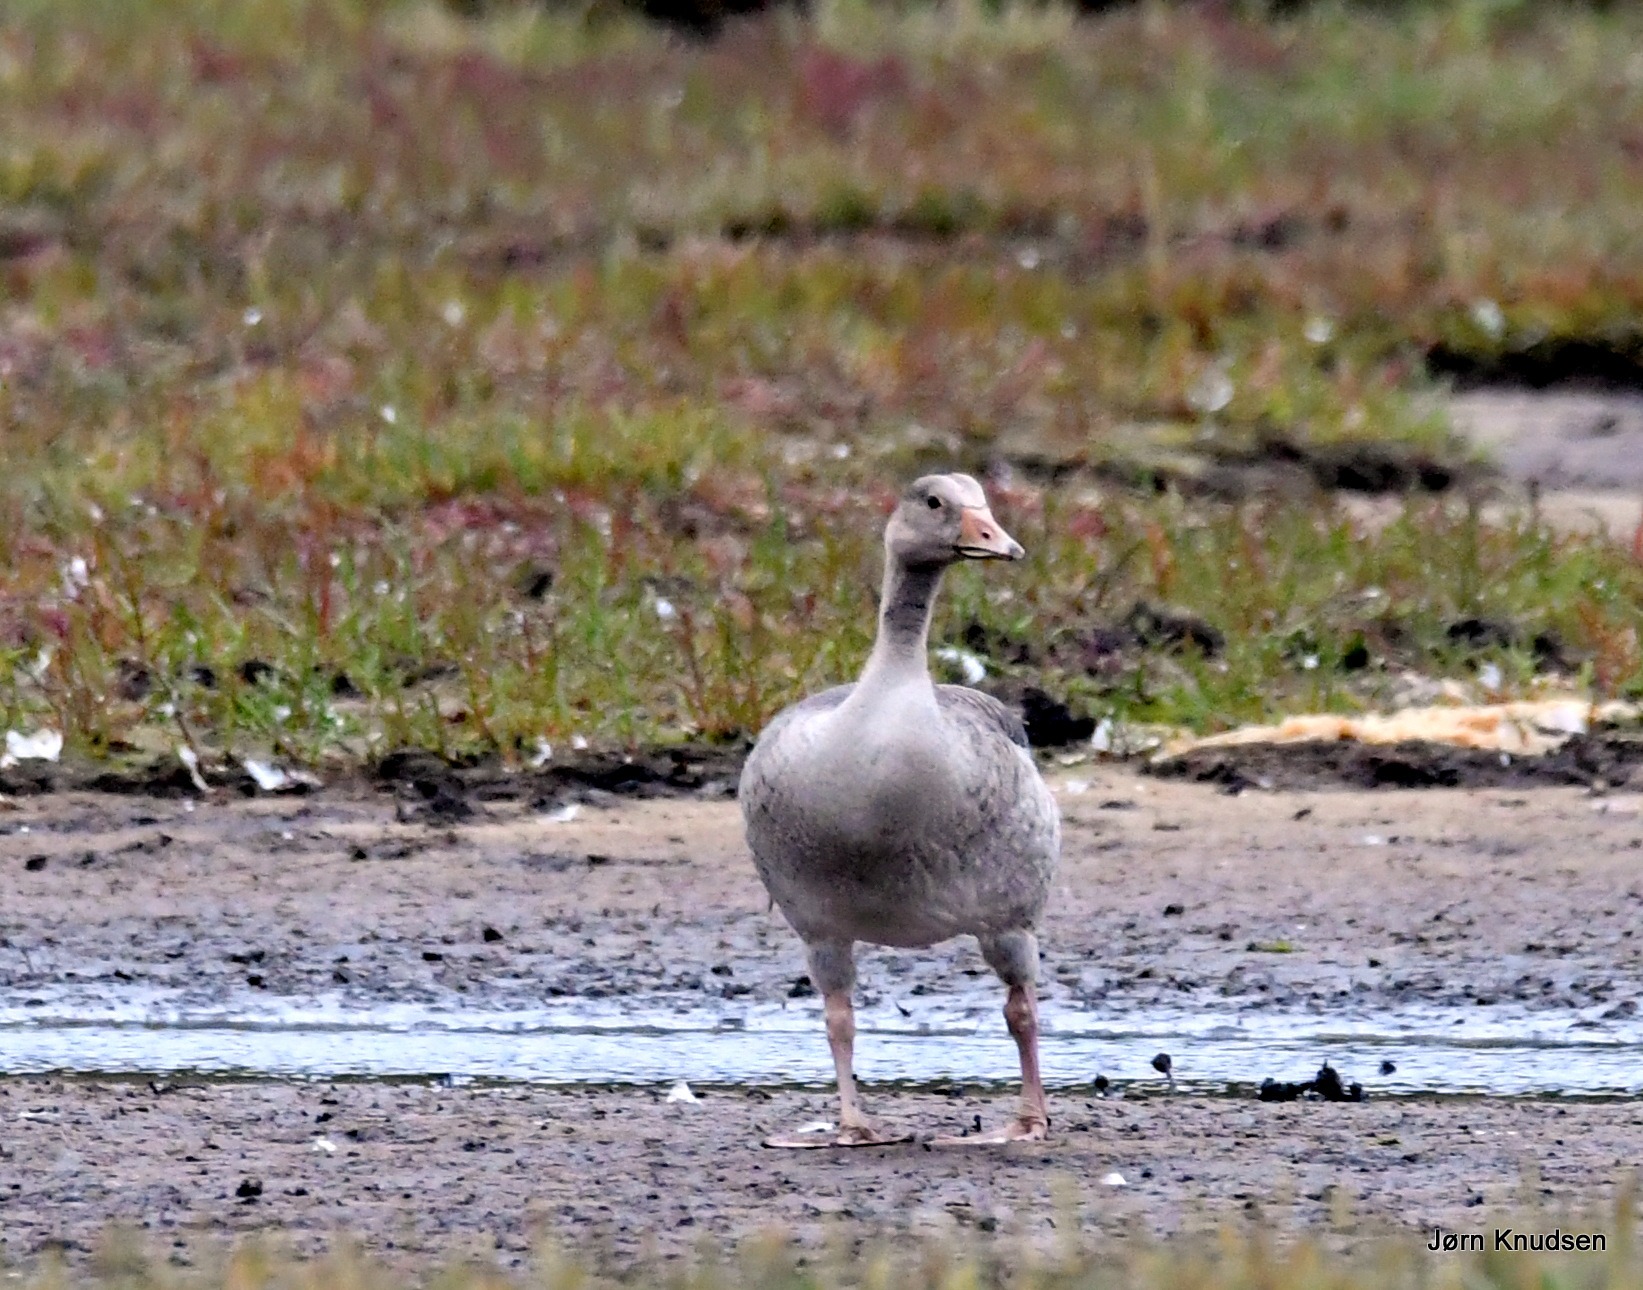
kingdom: Animalia
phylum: Chordata
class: Aves
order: Anseriformes
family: Anatidae
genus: Anser
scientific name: Anser anser
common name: Grågås
